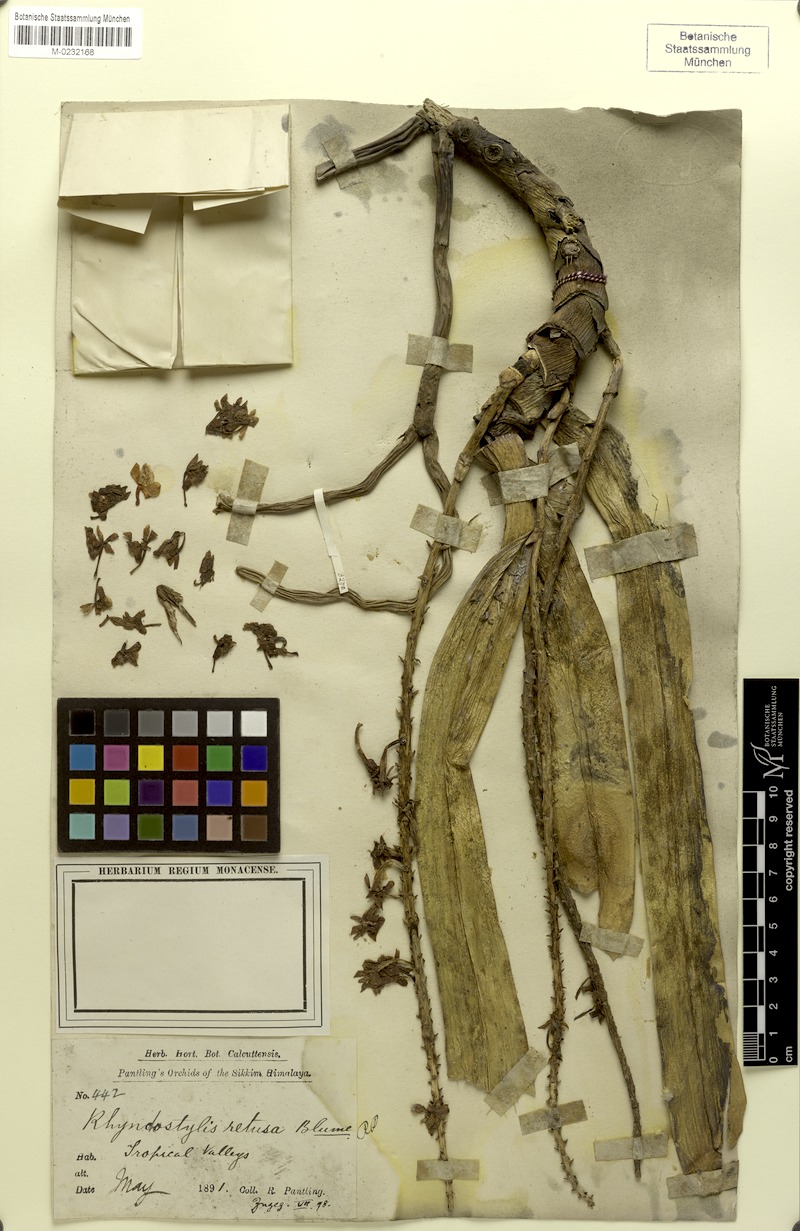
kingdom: Plantae
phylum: Tracheophyta
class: Liliopsida
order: Asparagales
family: Orchidaceae
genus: Rhynchostylis
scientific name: Rhynchostylis retusa
